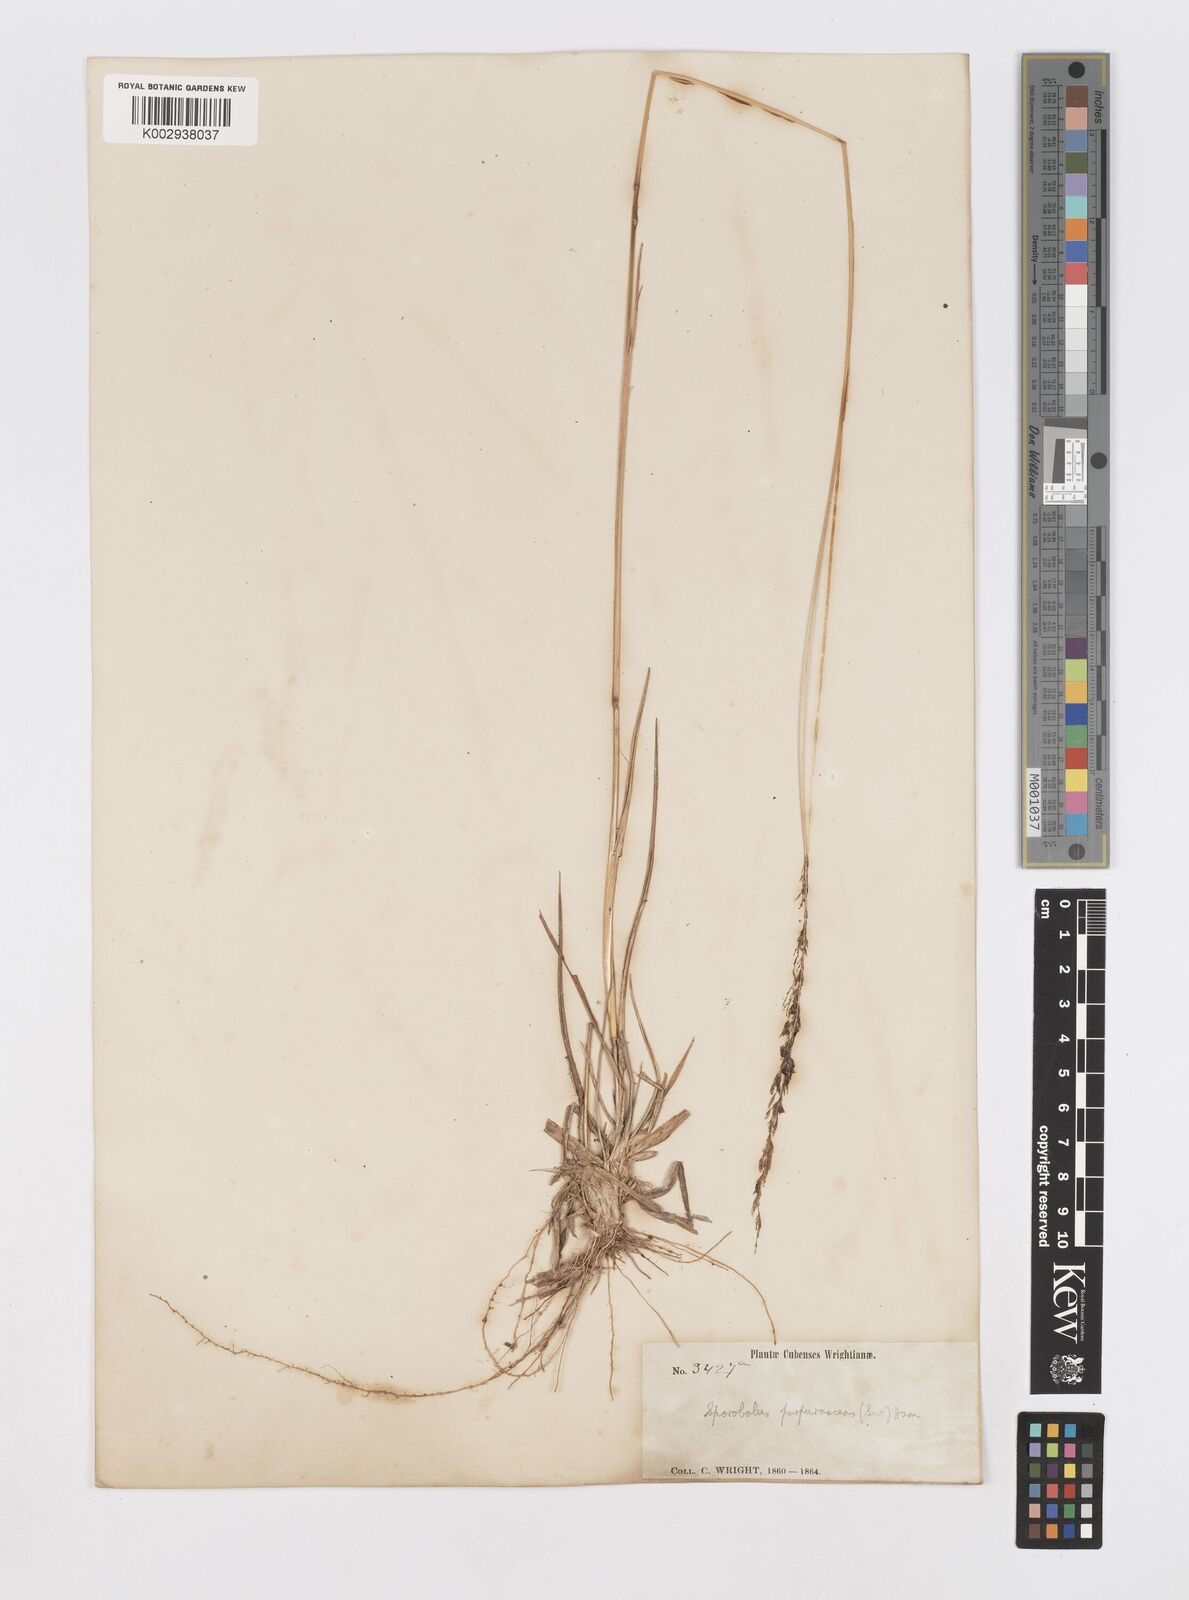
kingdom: Plantae
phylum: Tracheophyta
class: Liliopsida
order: Poales
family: Poaceae
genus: Sporobolus
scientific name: Sporobolus purpurascens
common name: Purple dropseed
